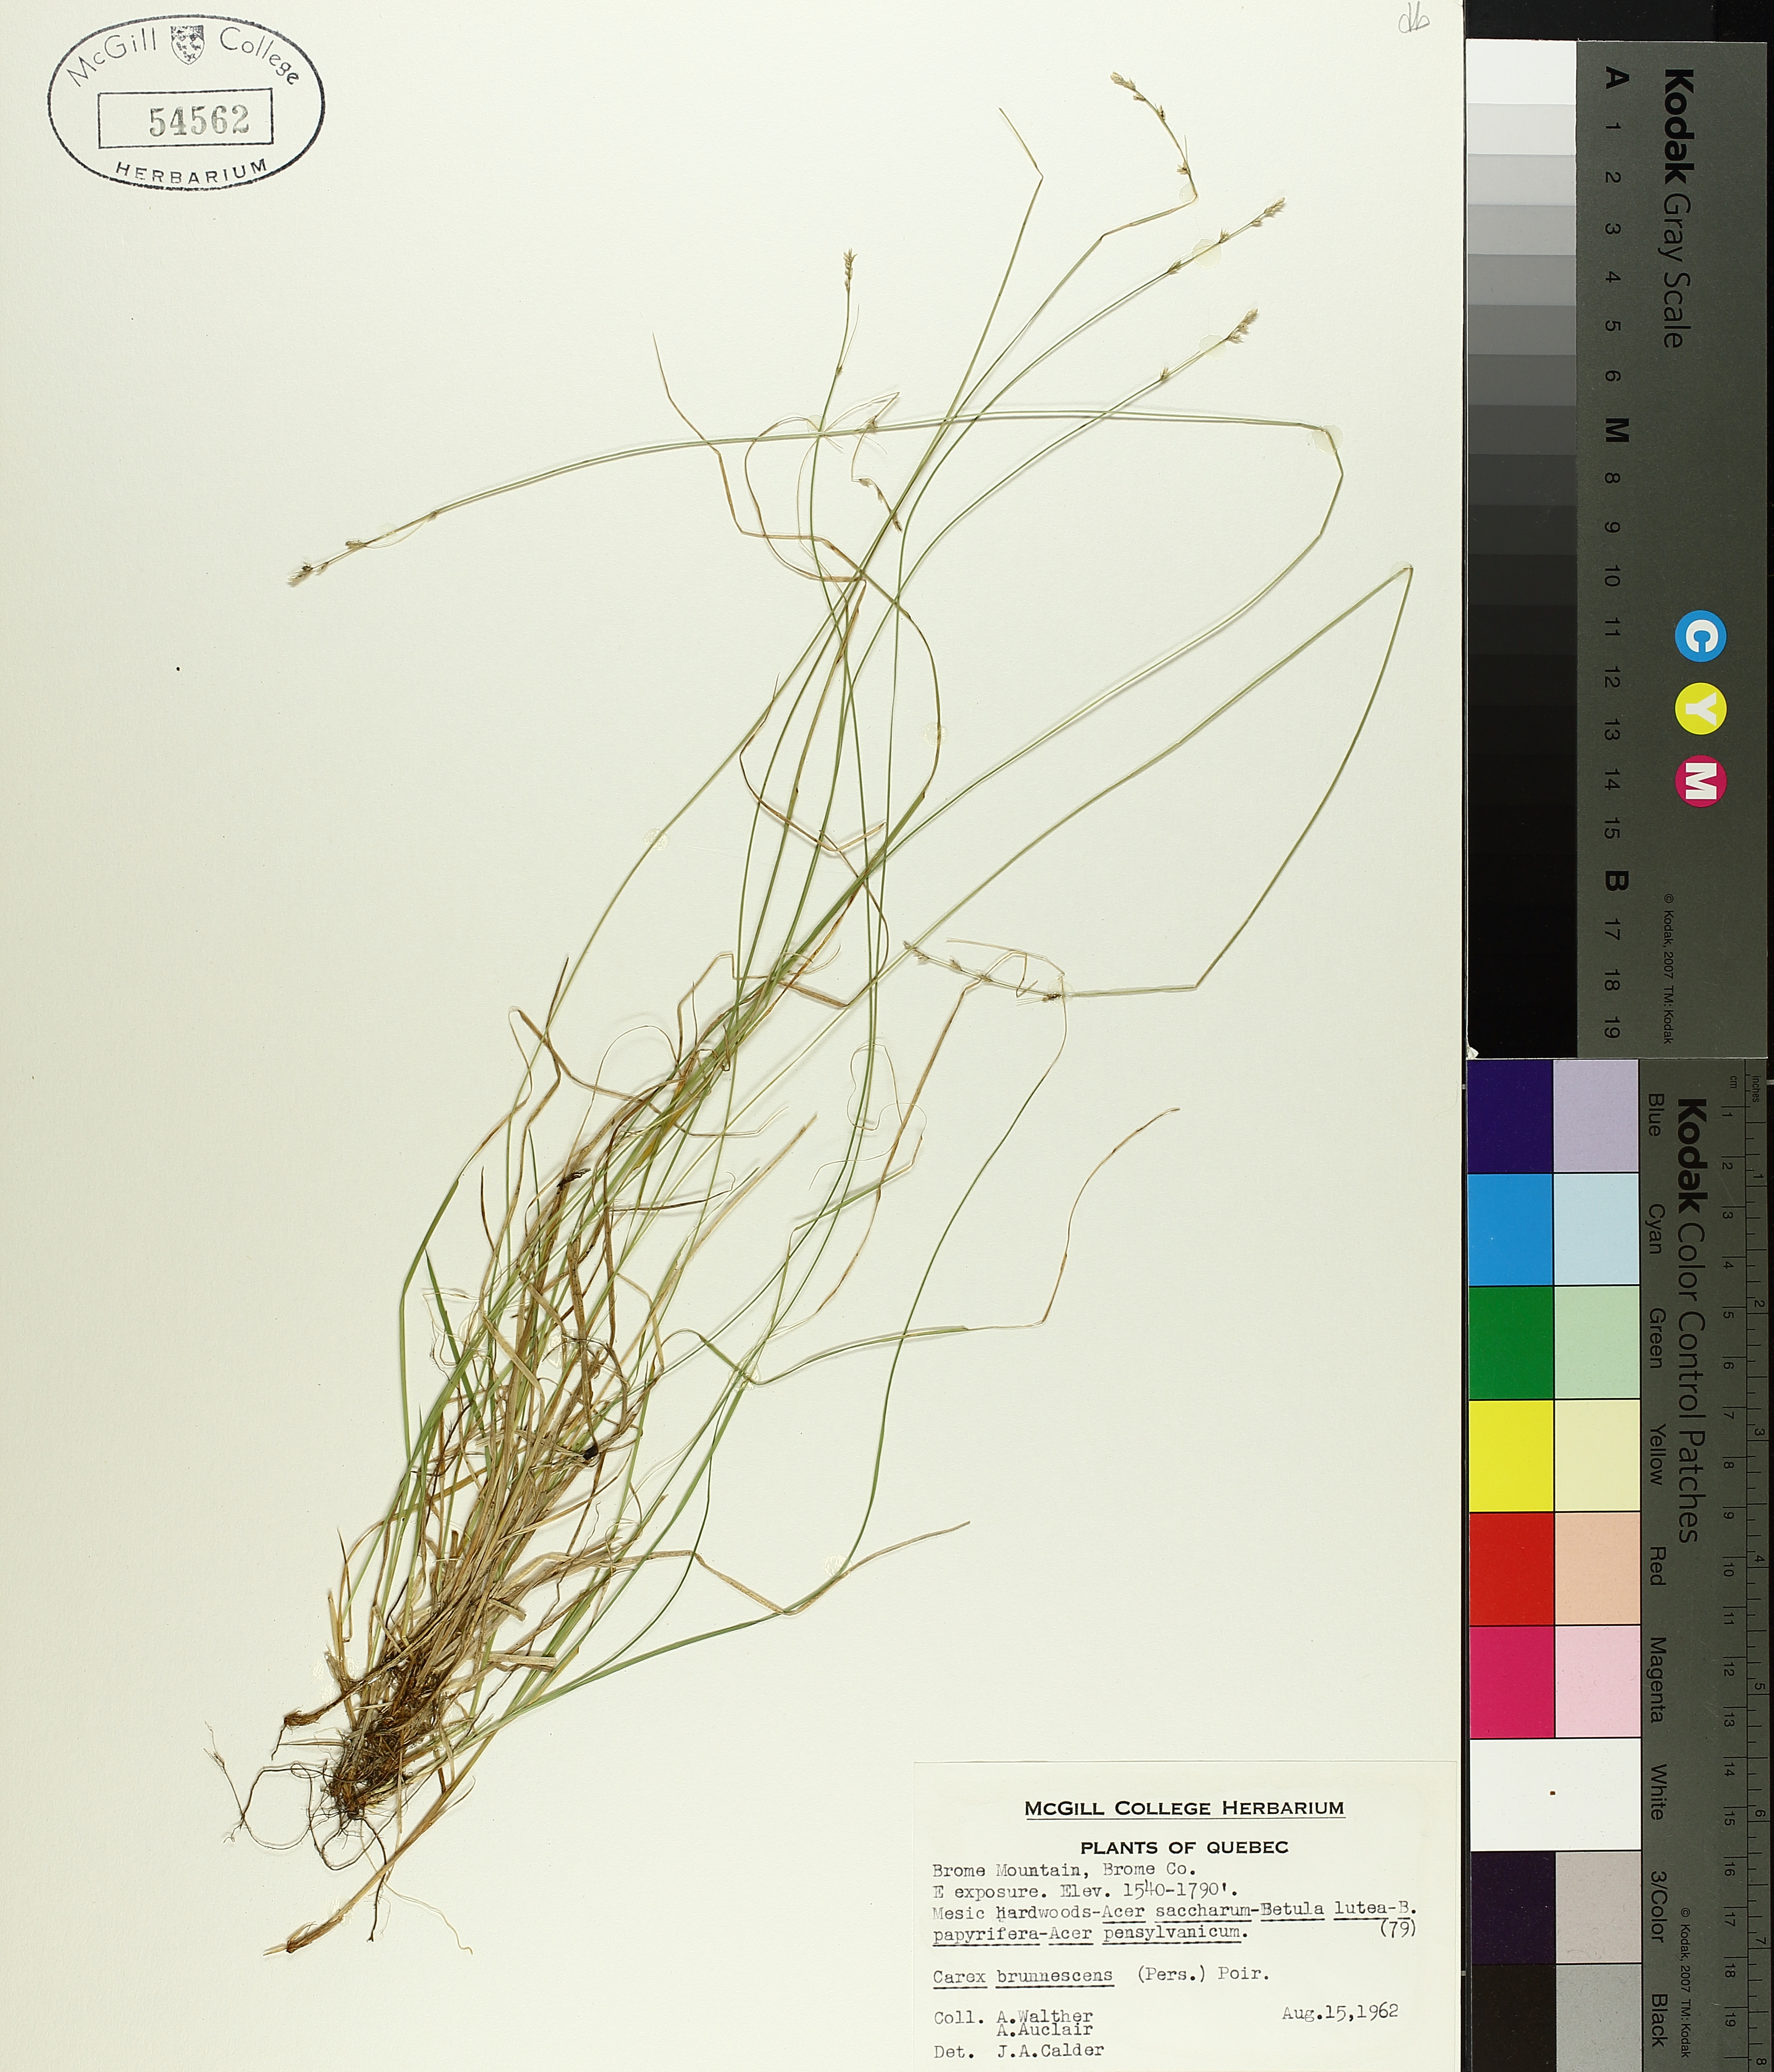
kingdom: Plantae
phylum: Tracheophyta
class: Liliopsida
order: Poales
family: Cyperaceae
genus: Carex
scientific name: Carex brunnescens
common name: Brown sedge
